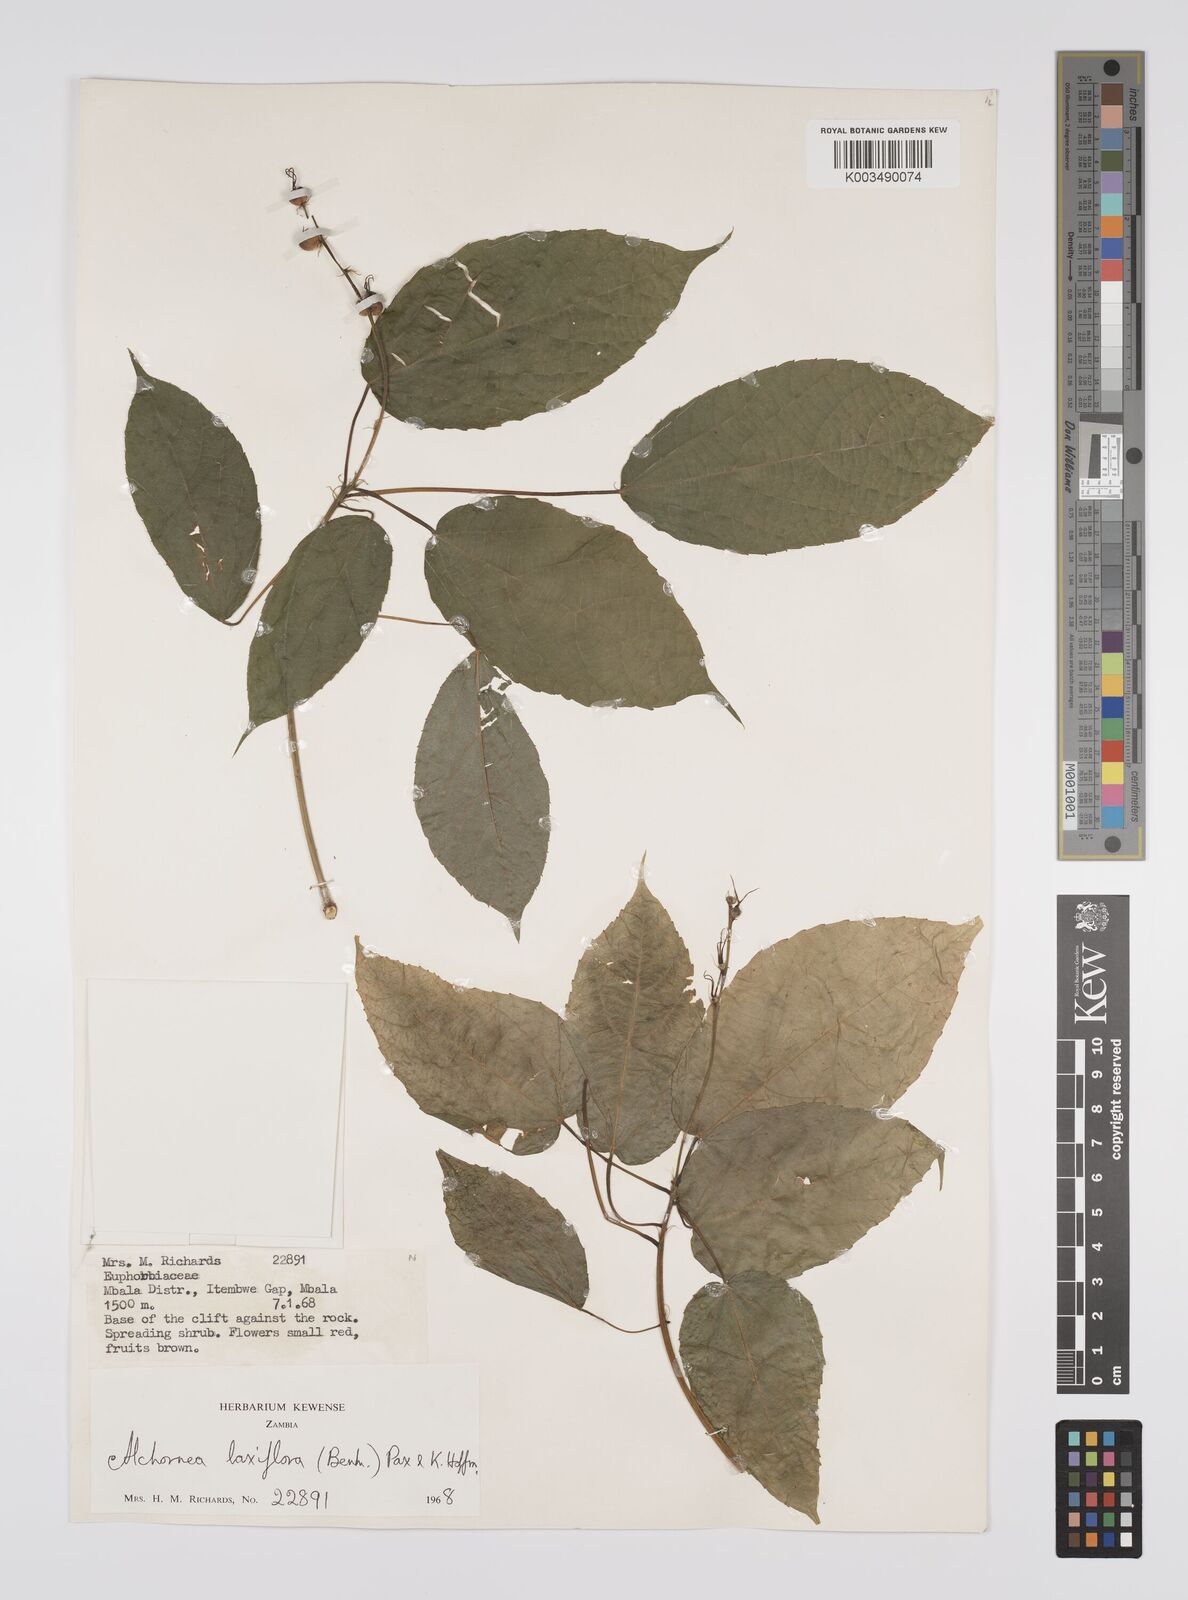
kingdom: Plantae
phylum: Tracheophyta
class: Magnoliopsida
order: Malpighiales
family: Euphorbiaceae
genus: Alchornea
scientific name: Alchornea laxiflora
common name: Lowveld bead-string
